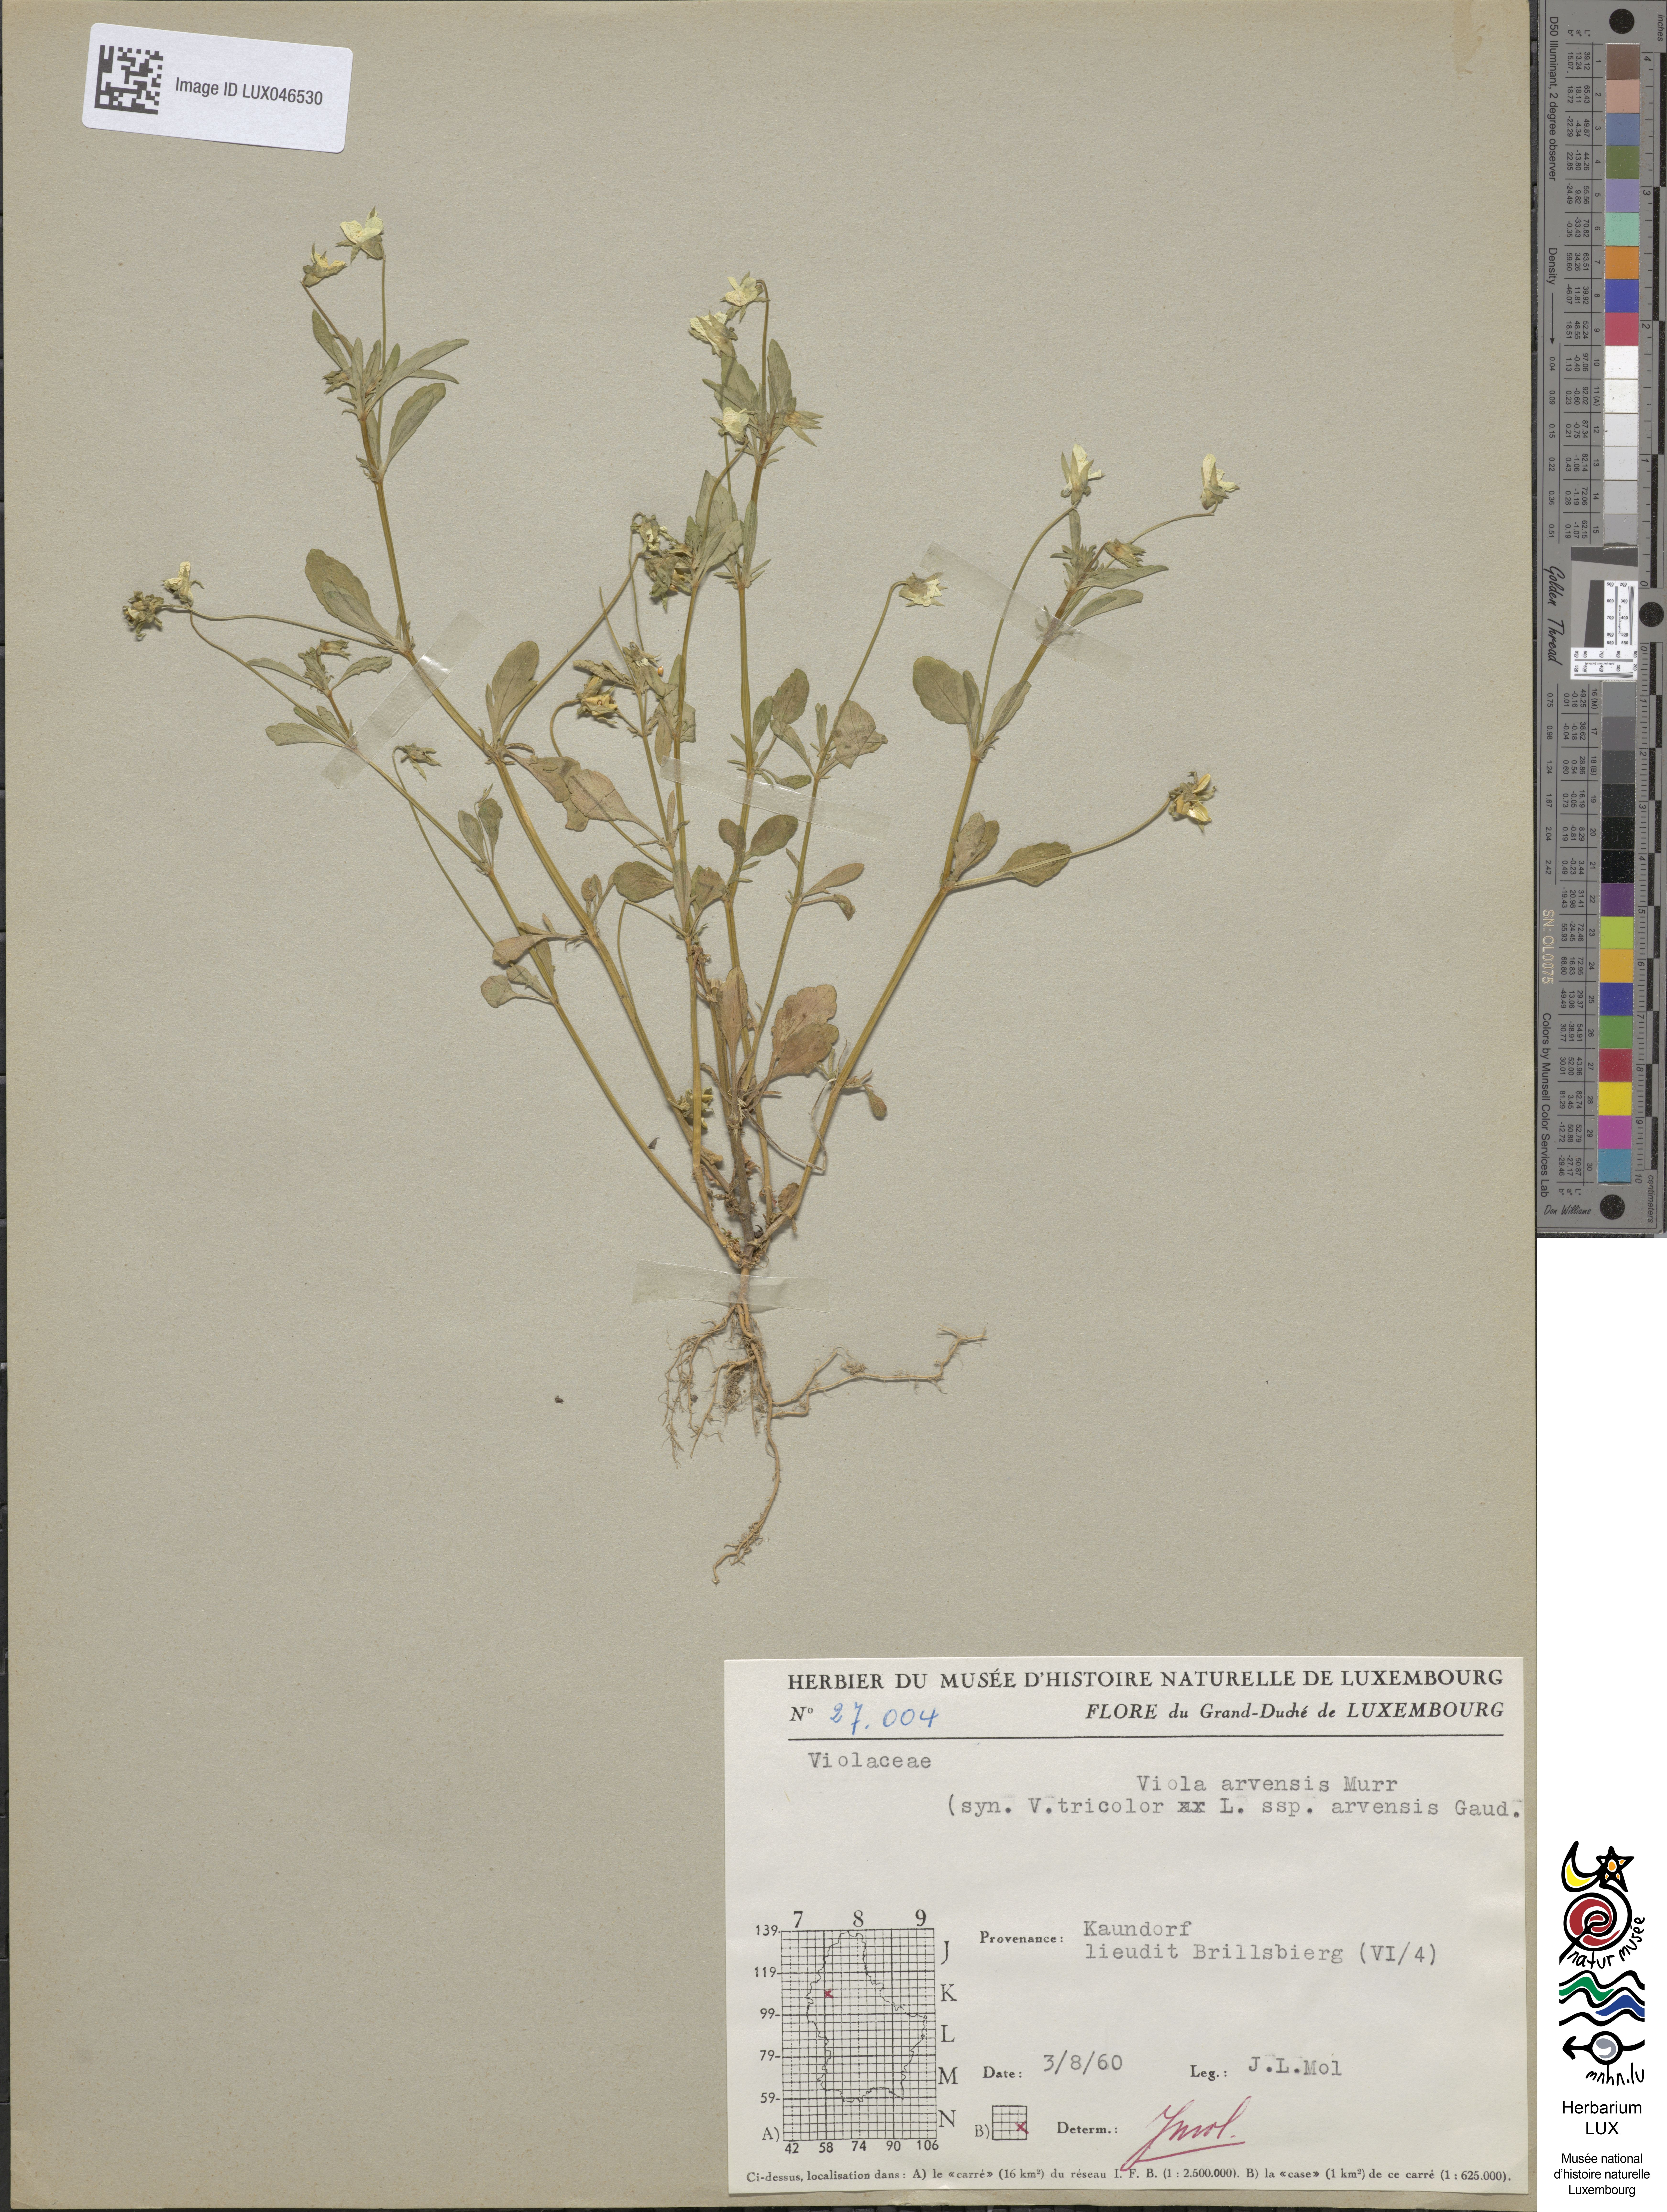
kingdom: Plantae
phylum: Tracheophyta
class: Magnoliopsida
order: Malpighiales
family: Violaceae
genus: Viola
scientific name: Viola arvensis
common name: Field pansy
